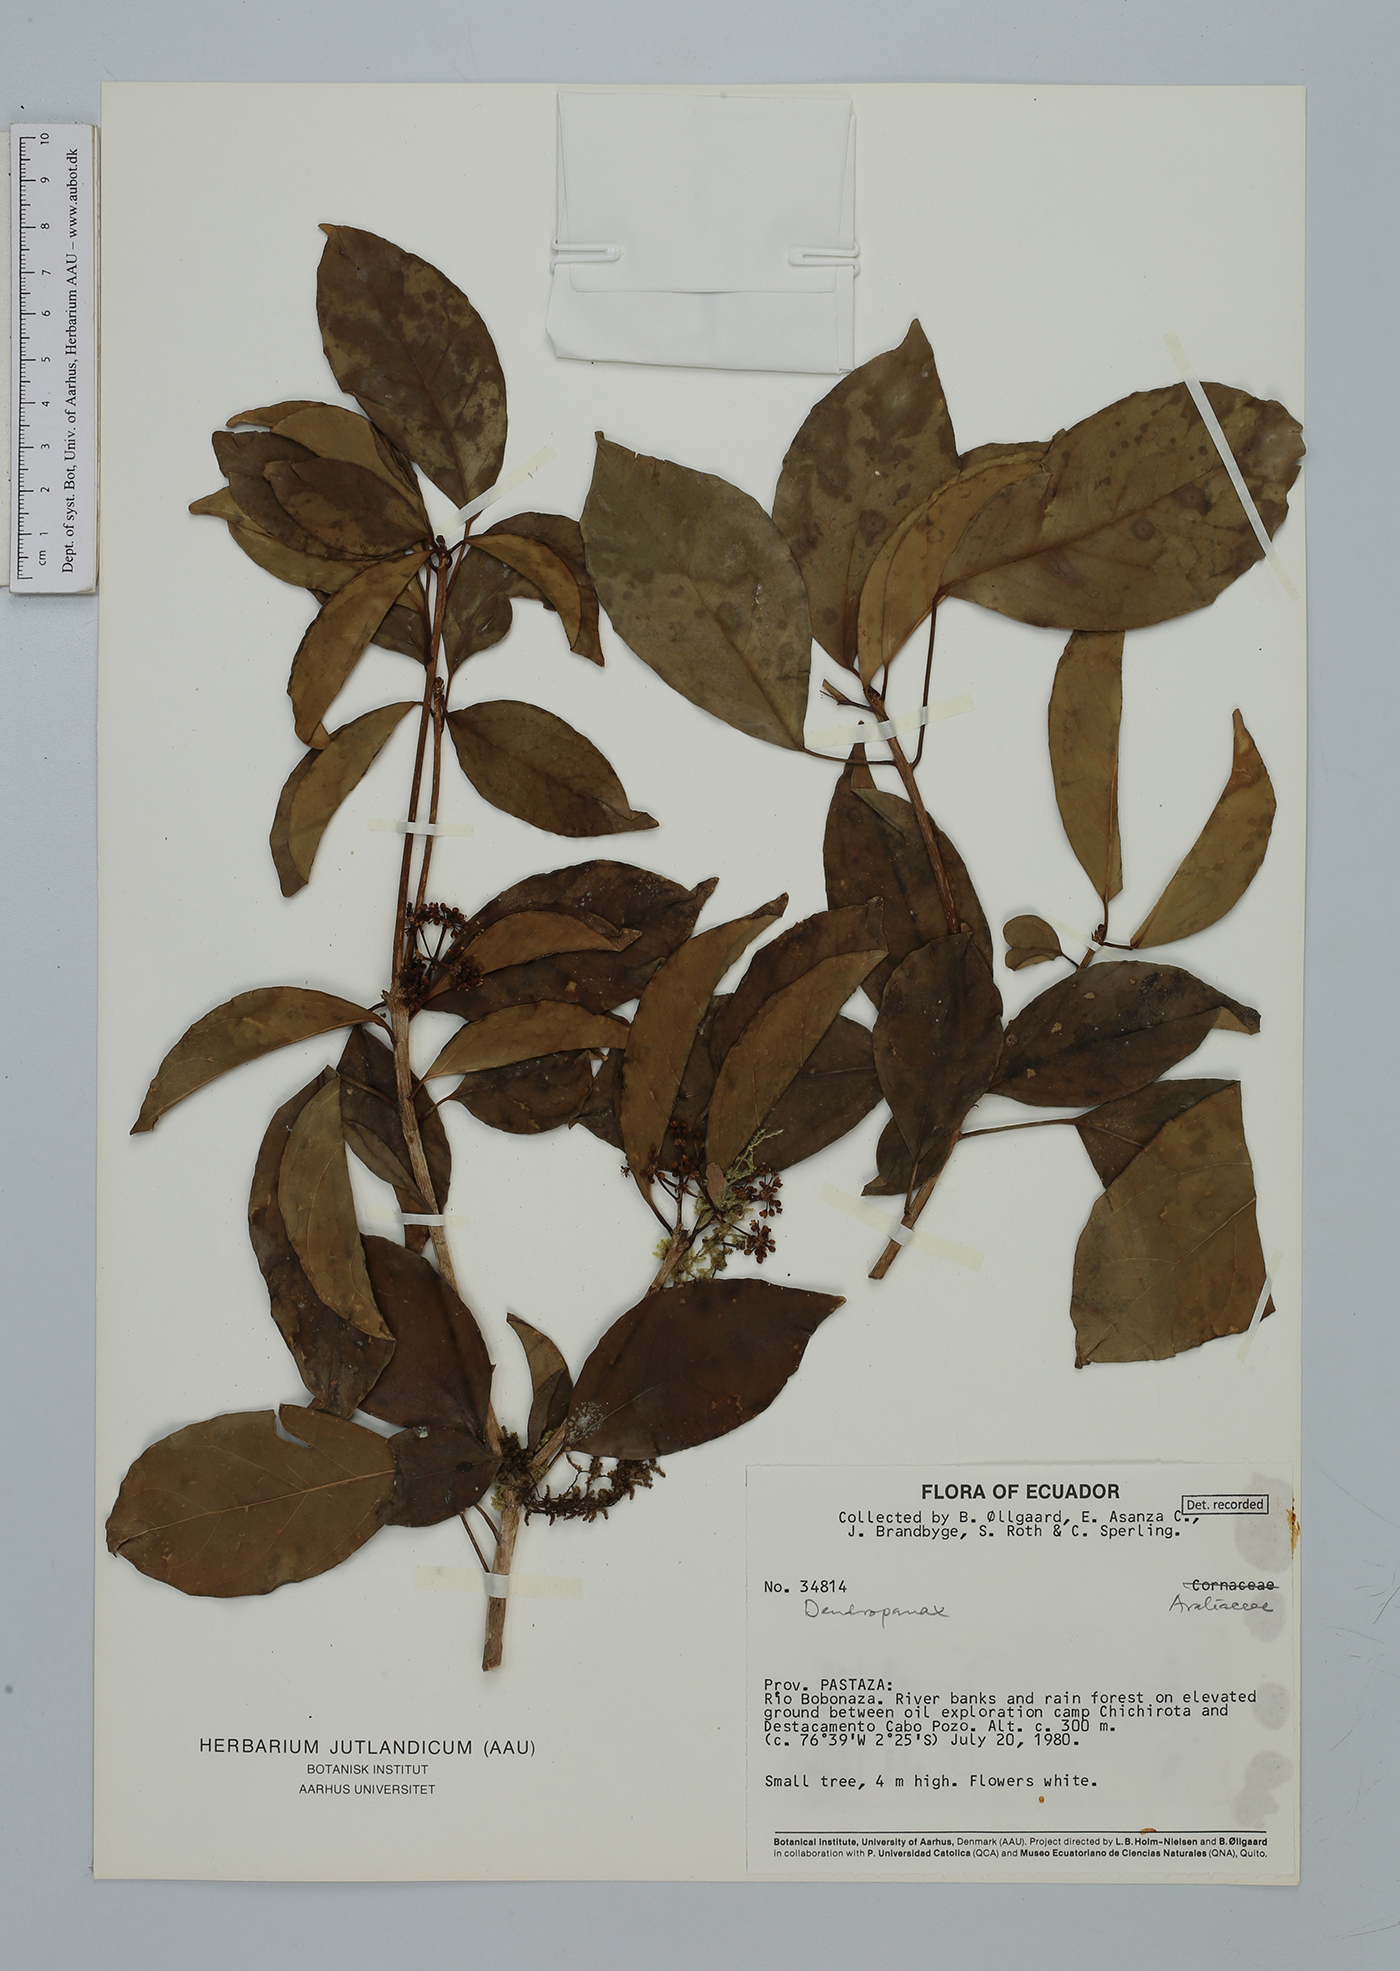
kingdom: Plantae
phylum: Tracheophyta
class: Magnoliopsida
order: Apiales
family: Araliaceae
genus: Dendropanax
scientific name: Dendropanax
